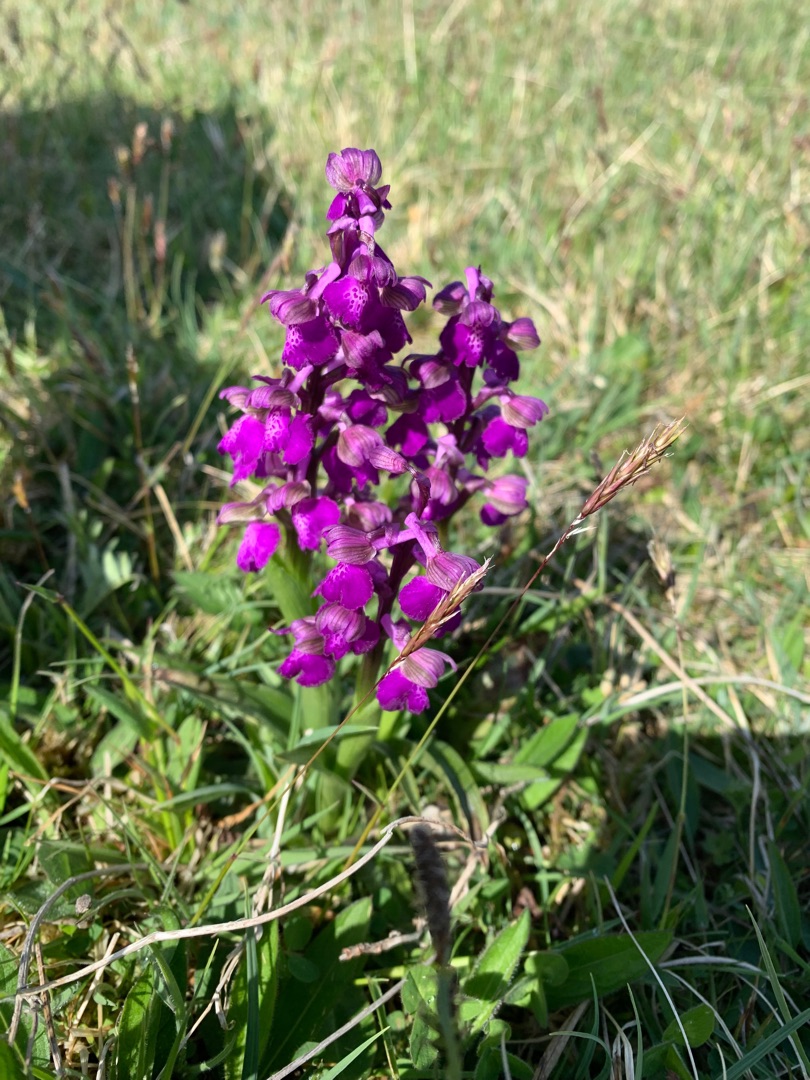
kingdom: Plantae
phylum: Tracheophyta
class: Liliopsida
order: Asparagales
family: Orchidaceae
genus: Anacamptis
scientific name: Anacamptis morio
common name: Salepgøgeurt
